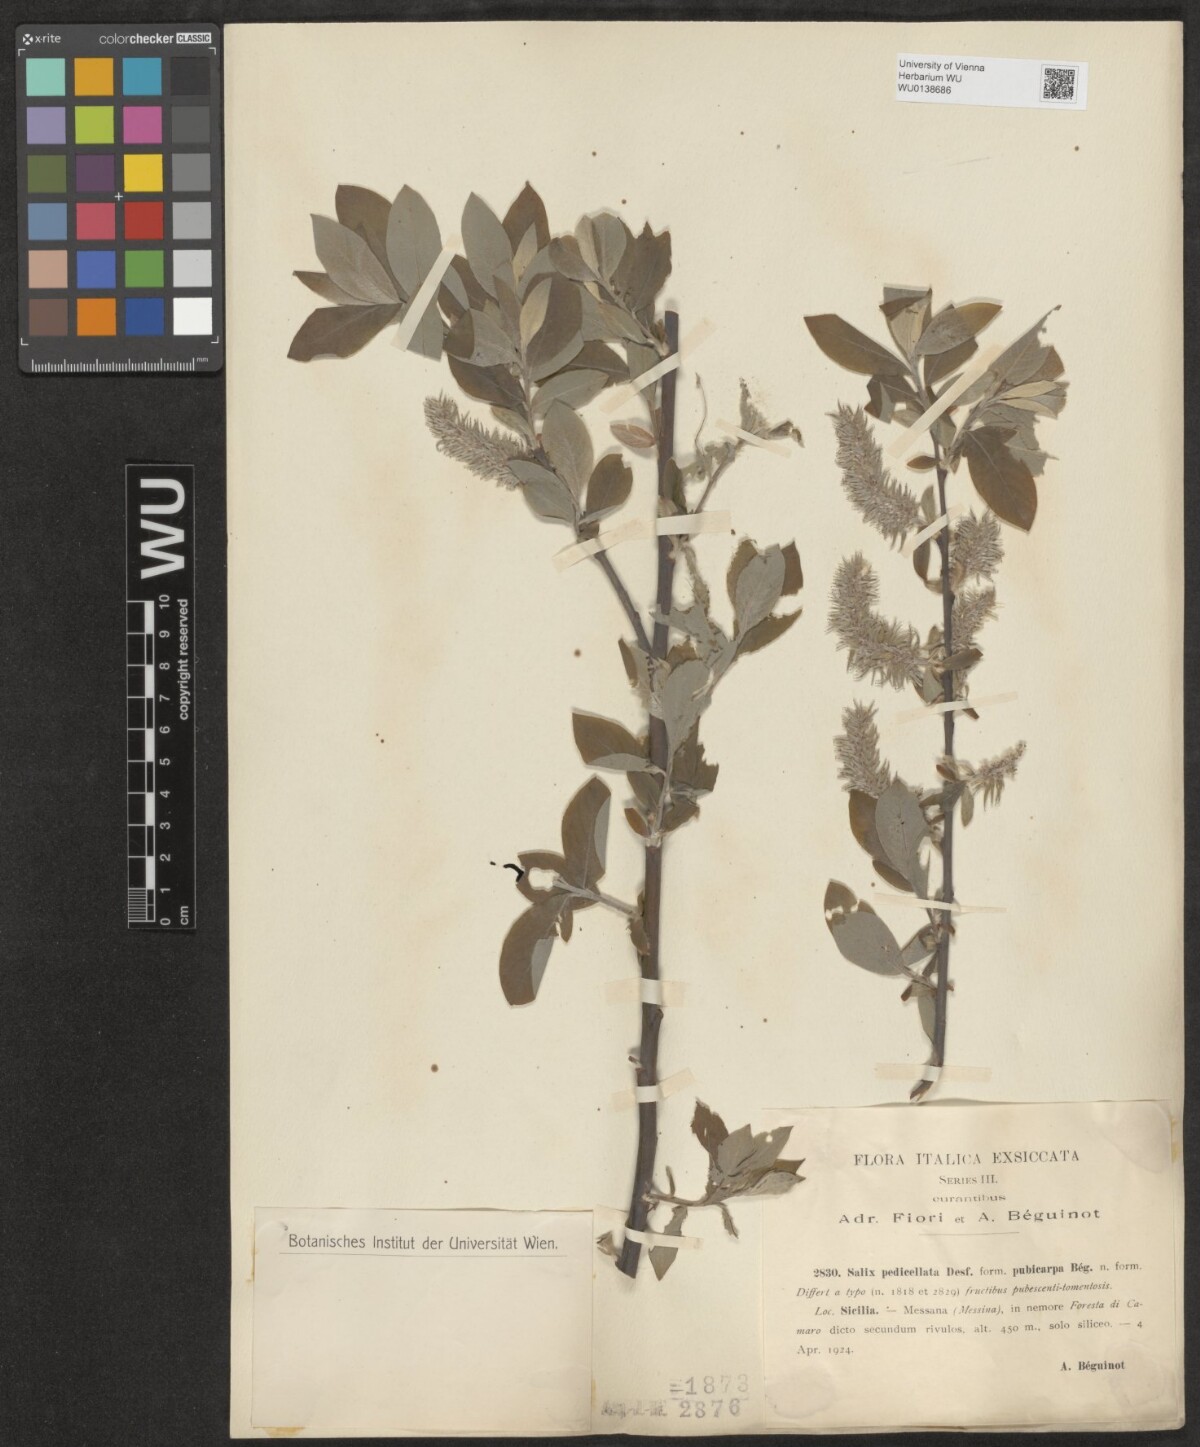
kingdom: Plantae
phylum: Tracheophyta
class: Magnoliopsida
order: Malpighiales
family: Salicaceae
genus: Salix
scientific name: Salix pedicellata
